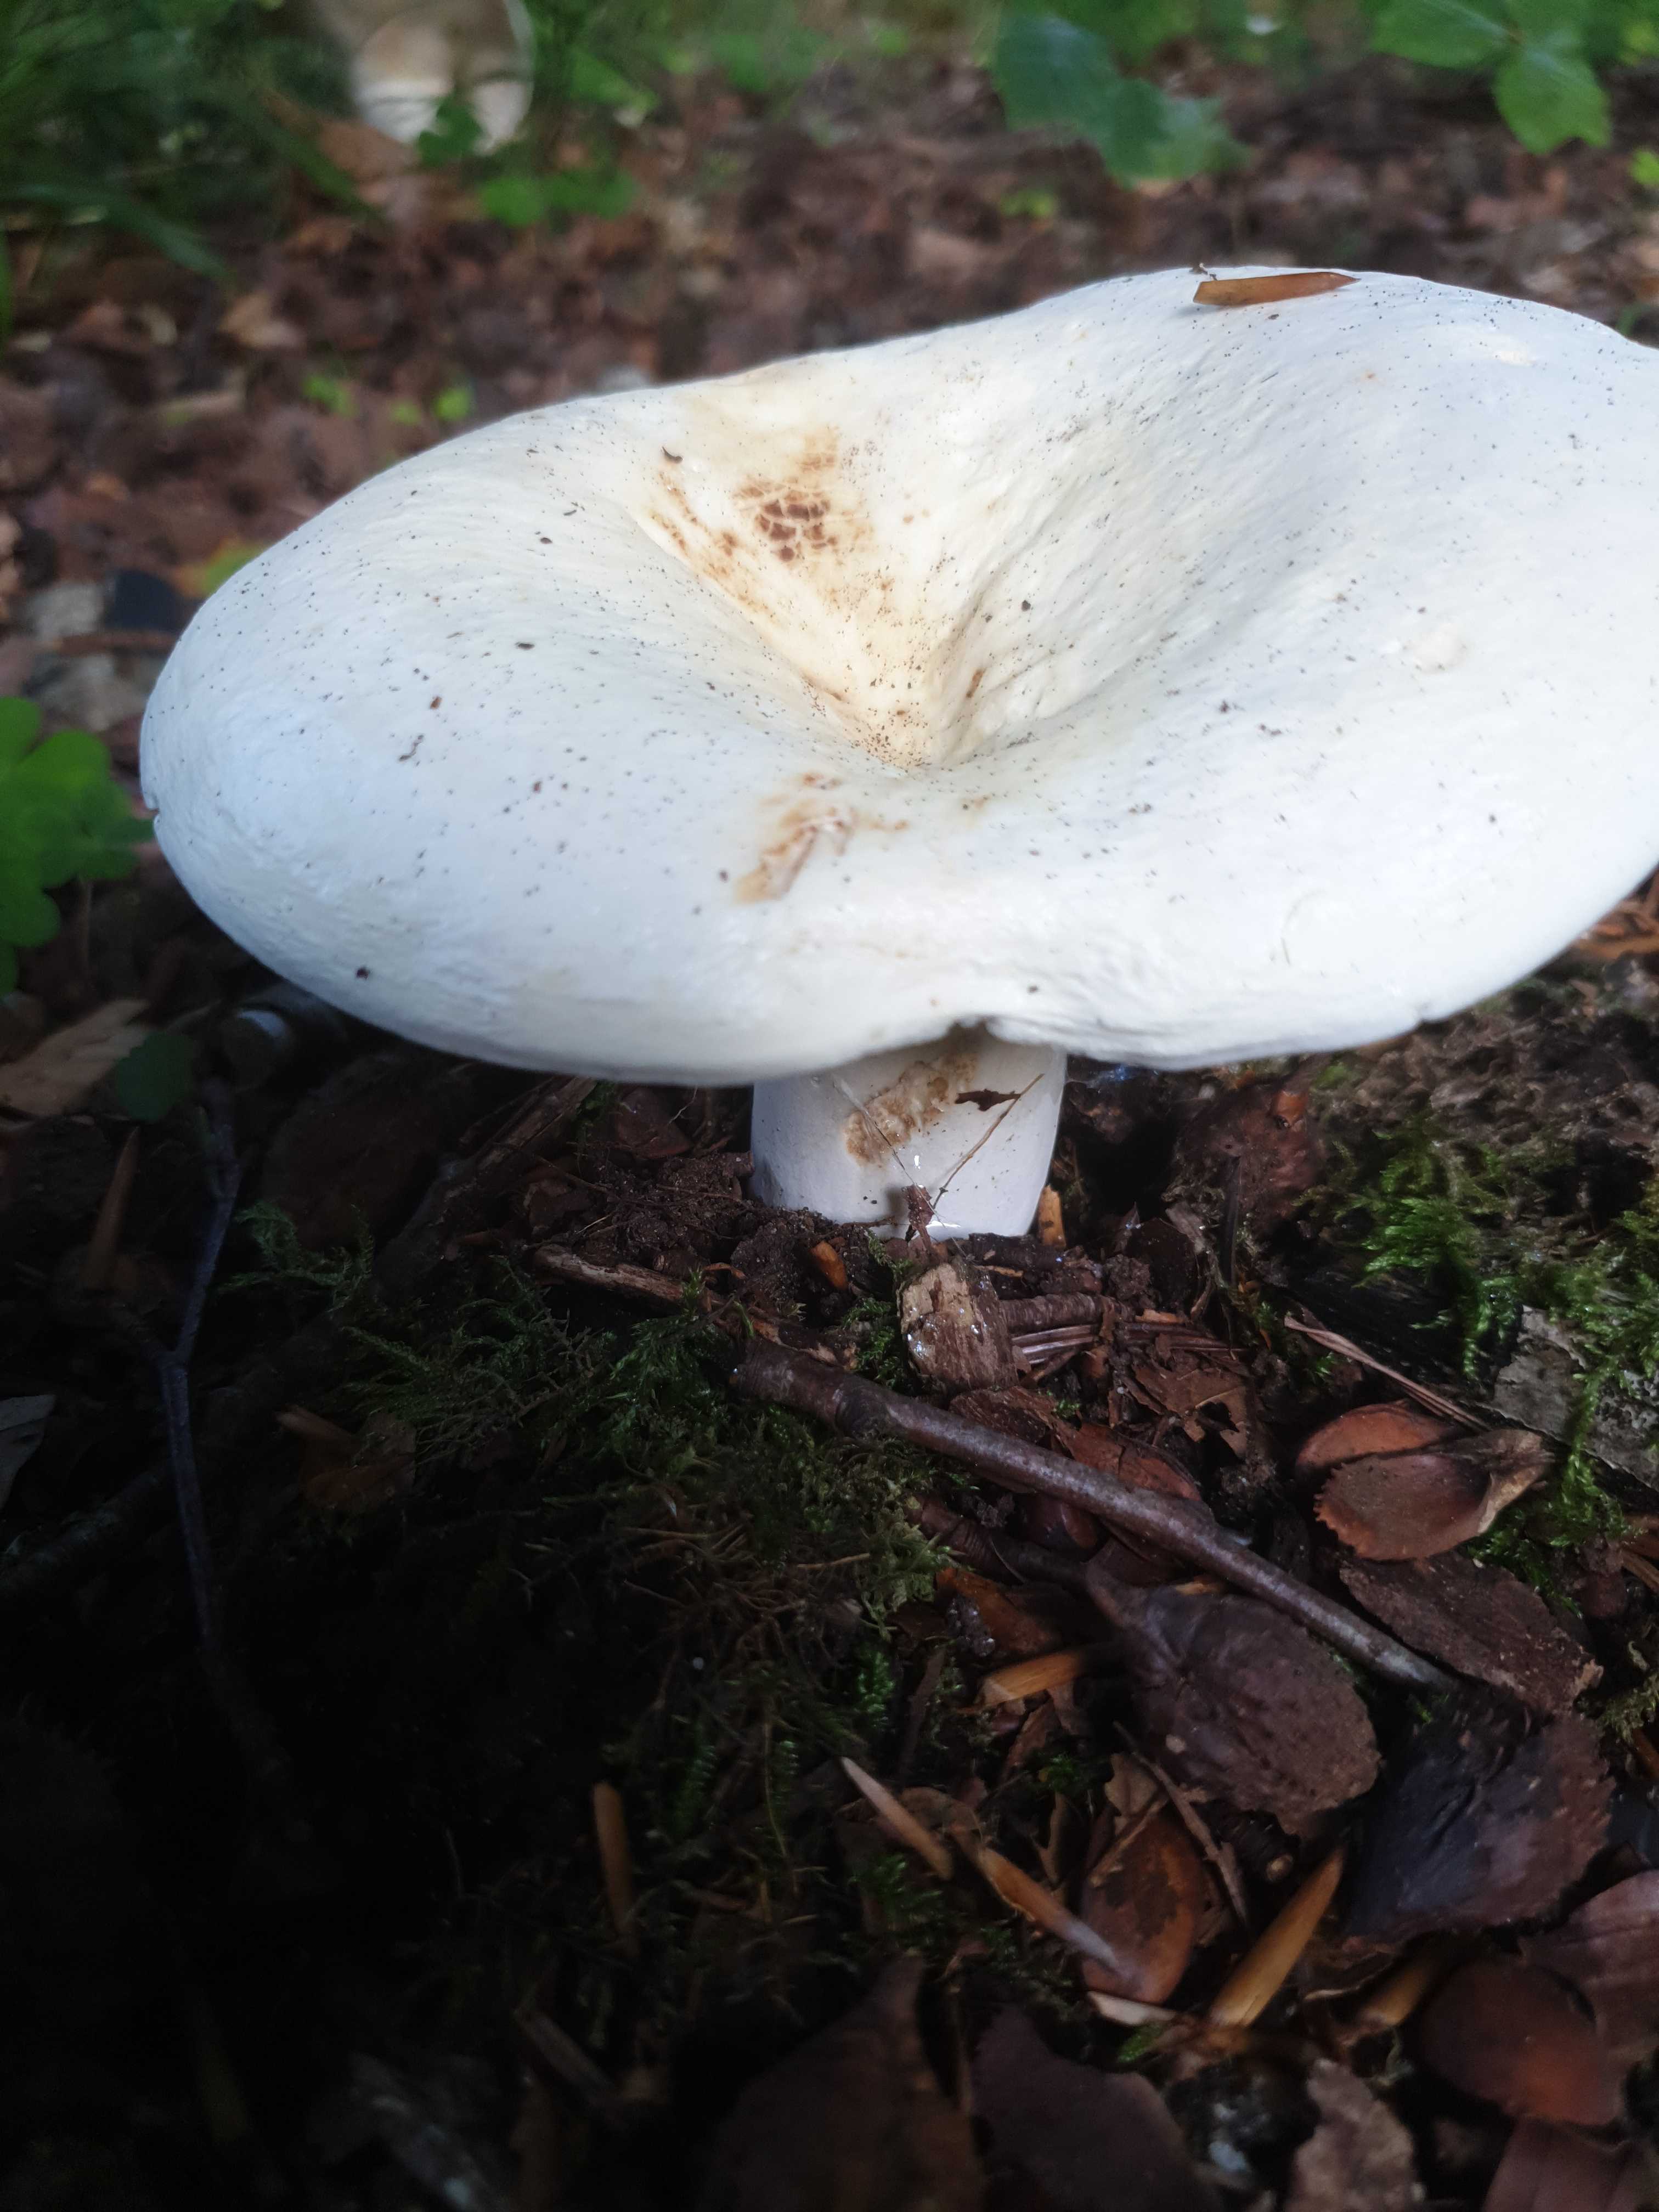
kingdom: Fungi
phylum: Basidiomycota
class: Agaricomycetes
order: Russulales
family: Russulaceae
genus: Lactifluus
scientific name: Lactifluus
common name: mælkehat
